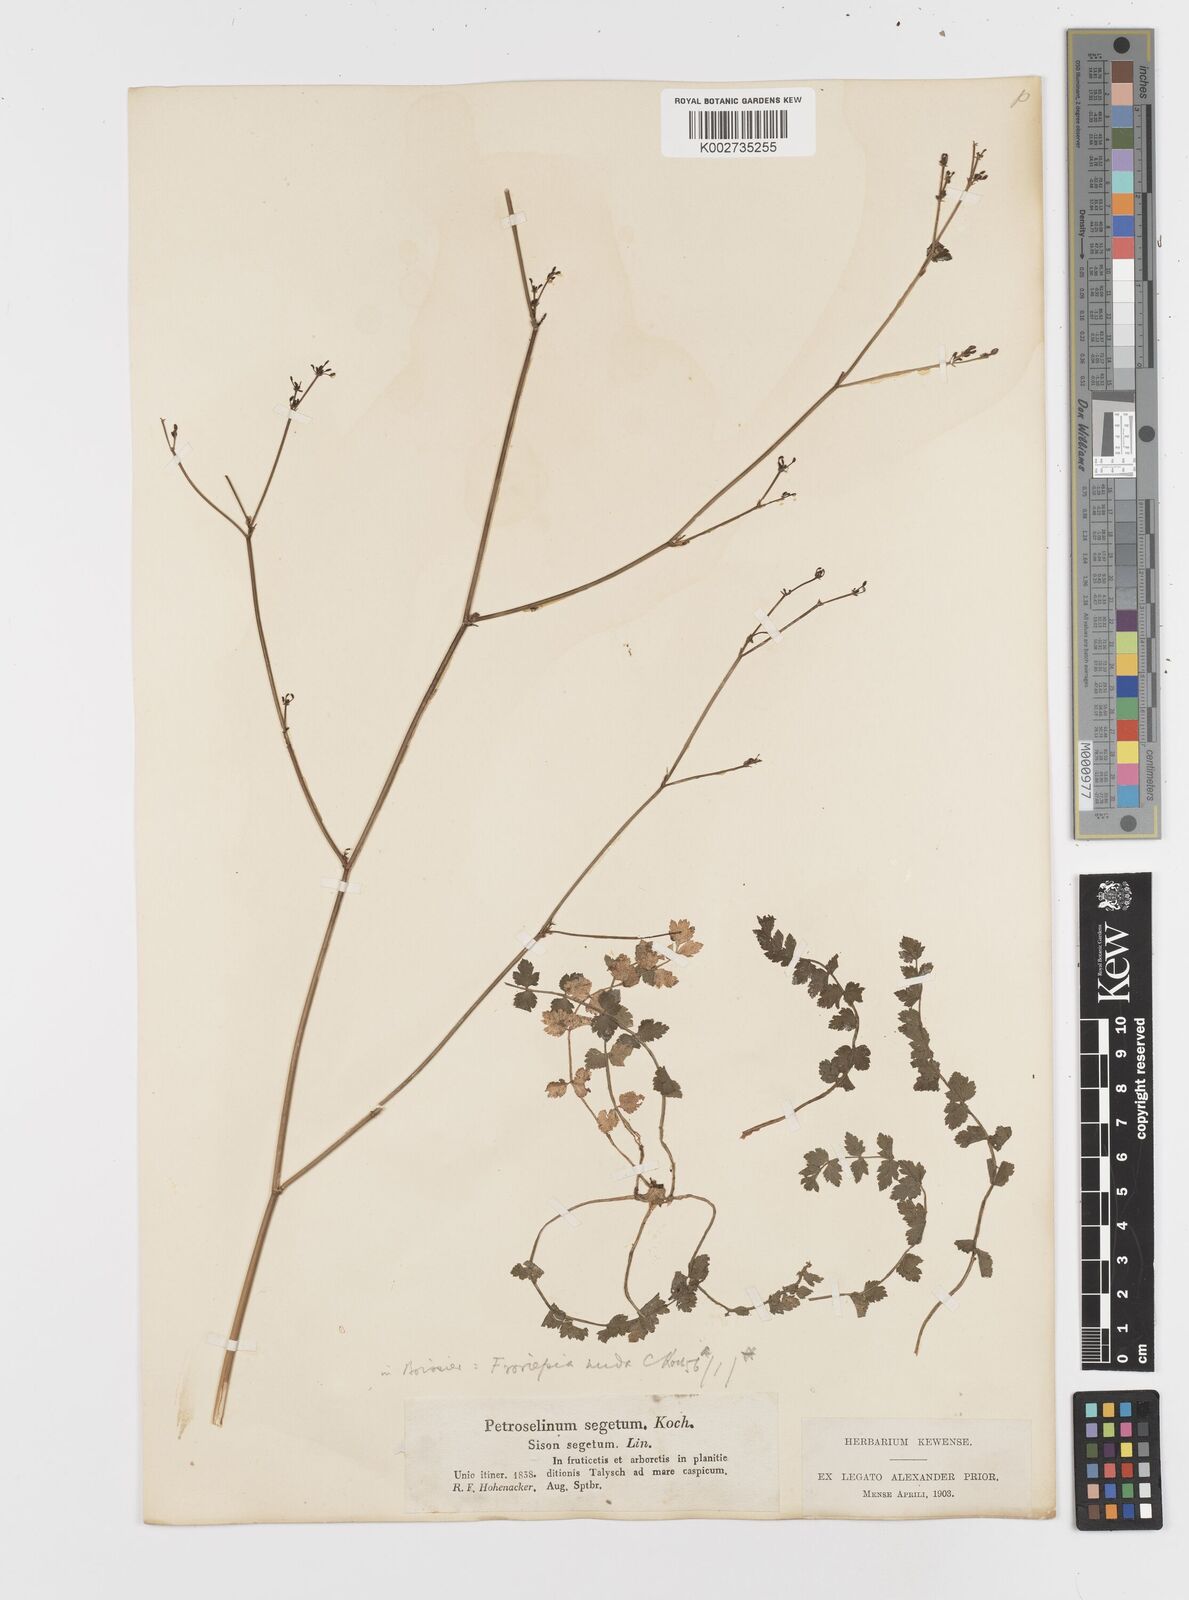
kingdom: Plantae
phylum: Tracheophyta
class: Magnoliopsida
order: Apiales
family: Apiaceae
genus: Froriepia
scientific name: Froriepia subpinnata
